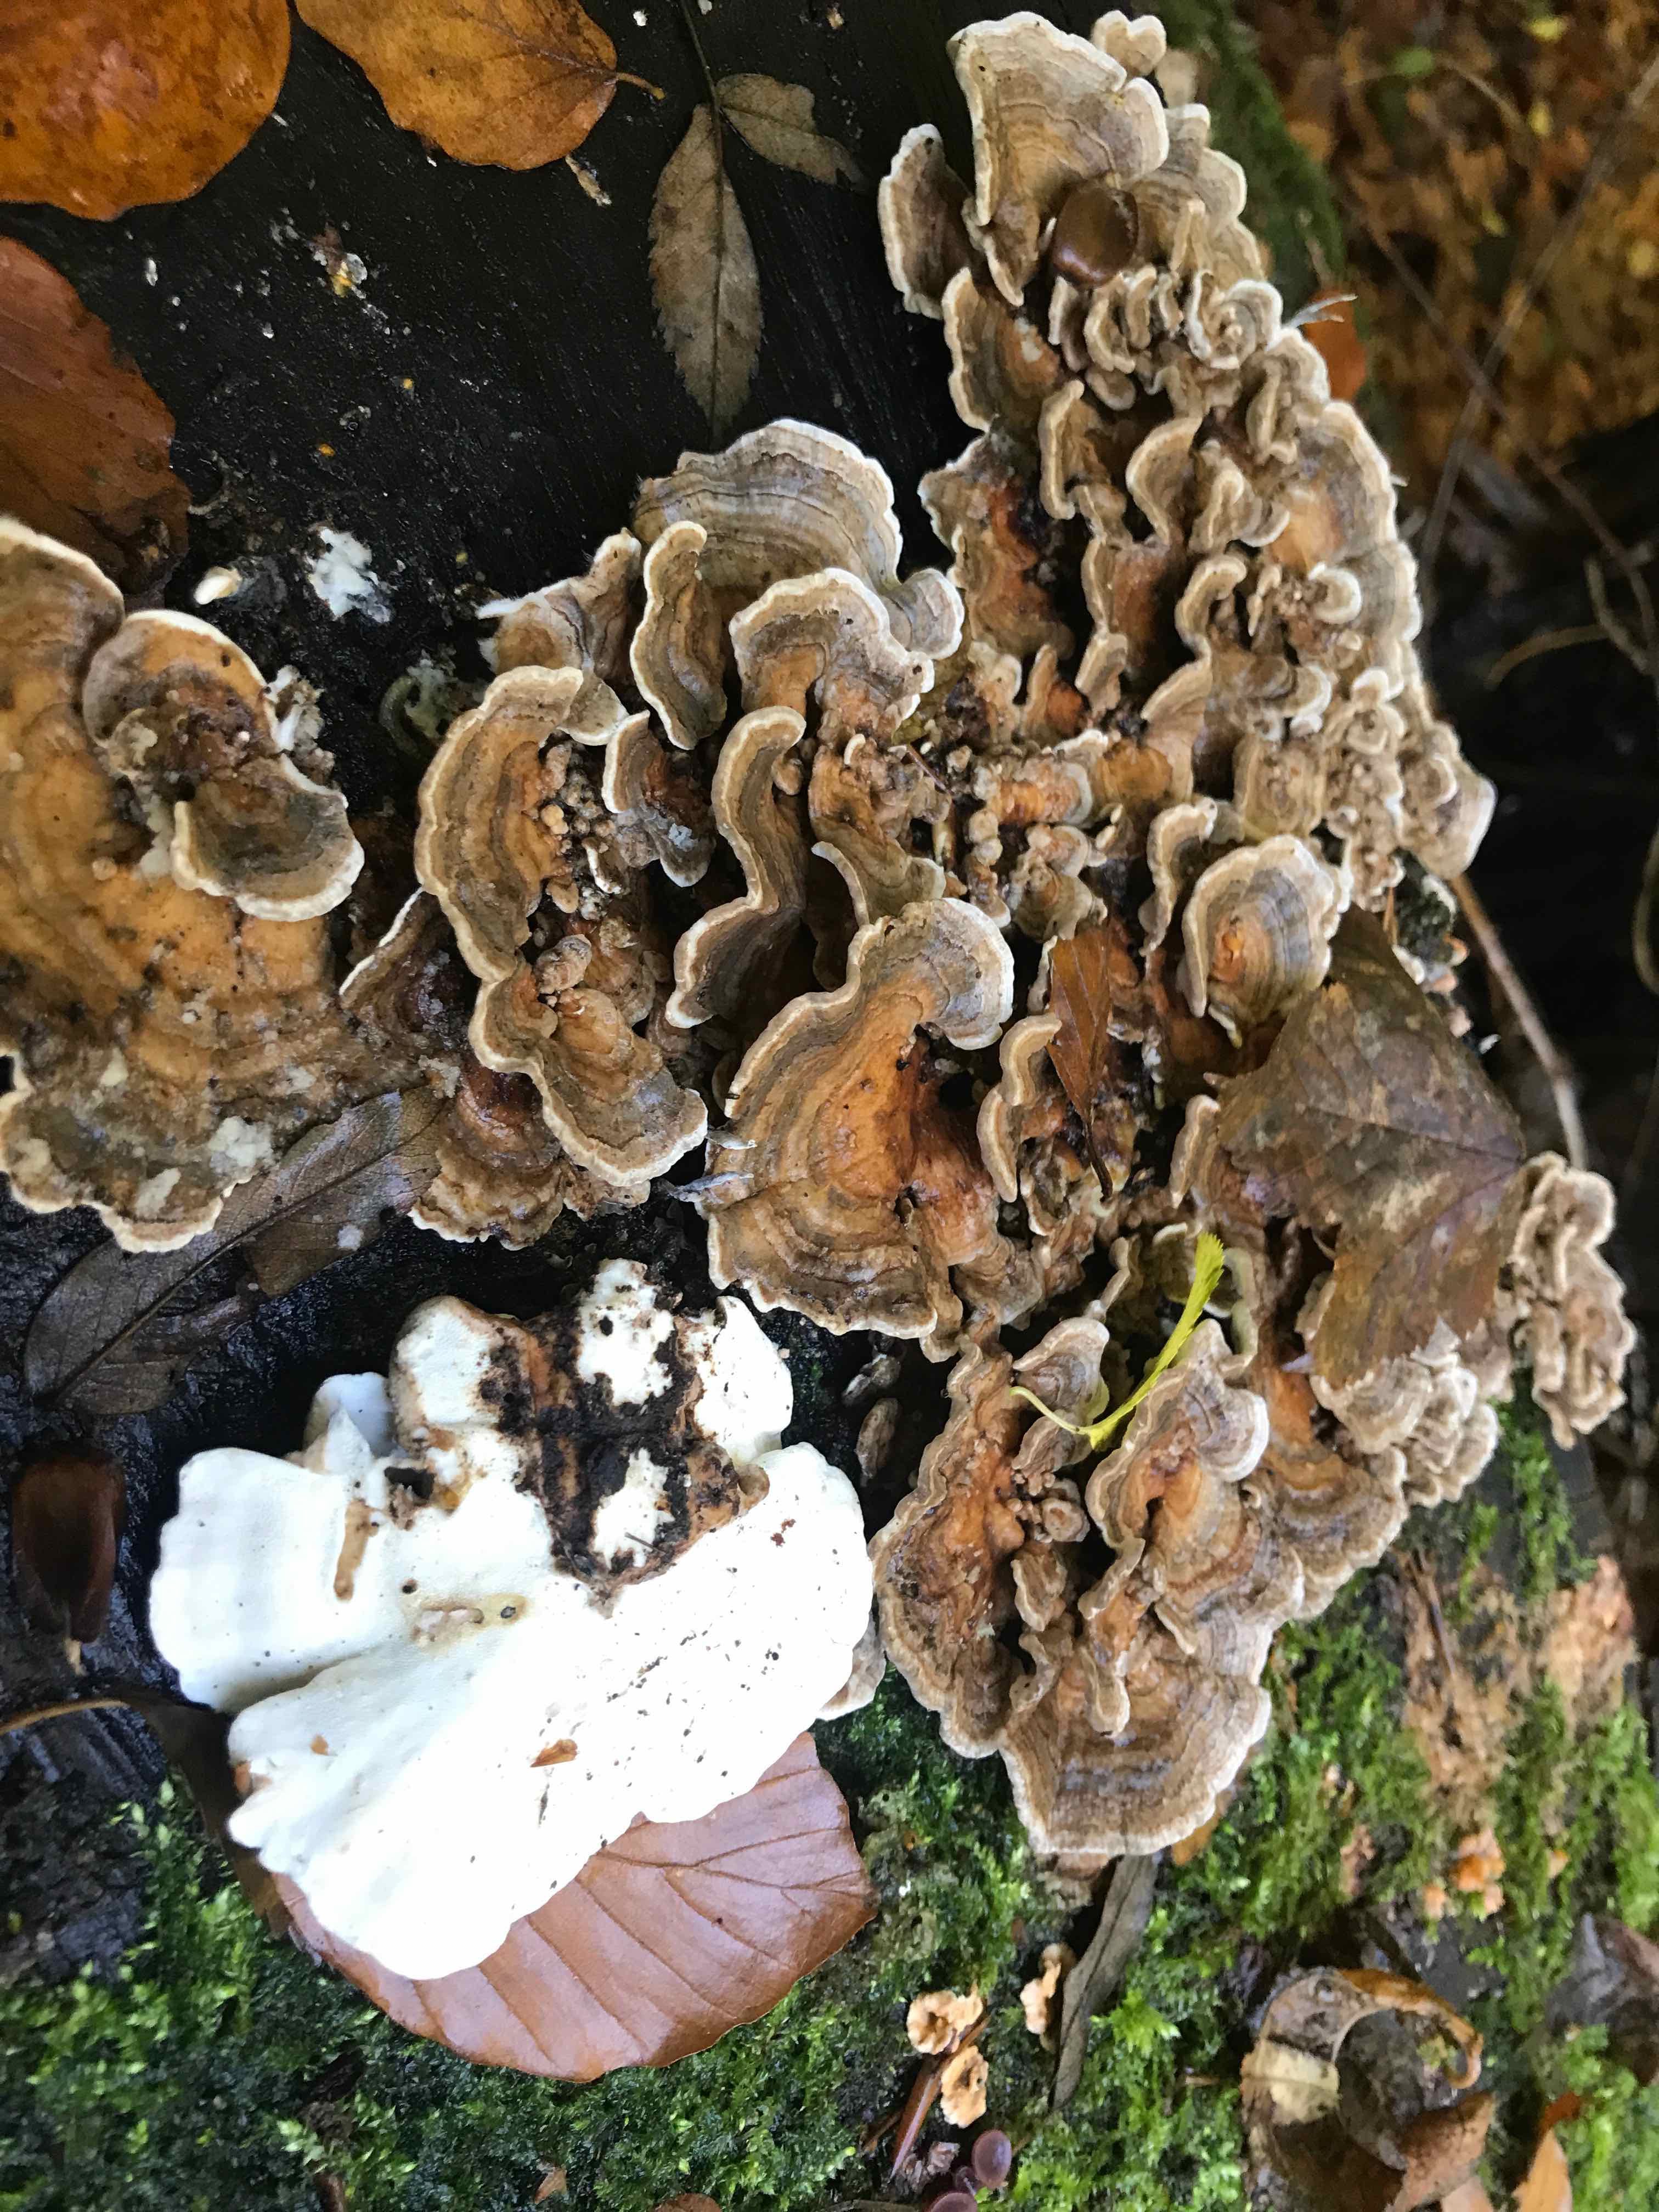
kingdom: Fungi
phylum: Basidiomycota
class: Agaricomycetes
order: Polyporales
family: Polyporaceae
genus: Trametes
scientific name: Trametes versicolor
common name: broget læderporesvamp
